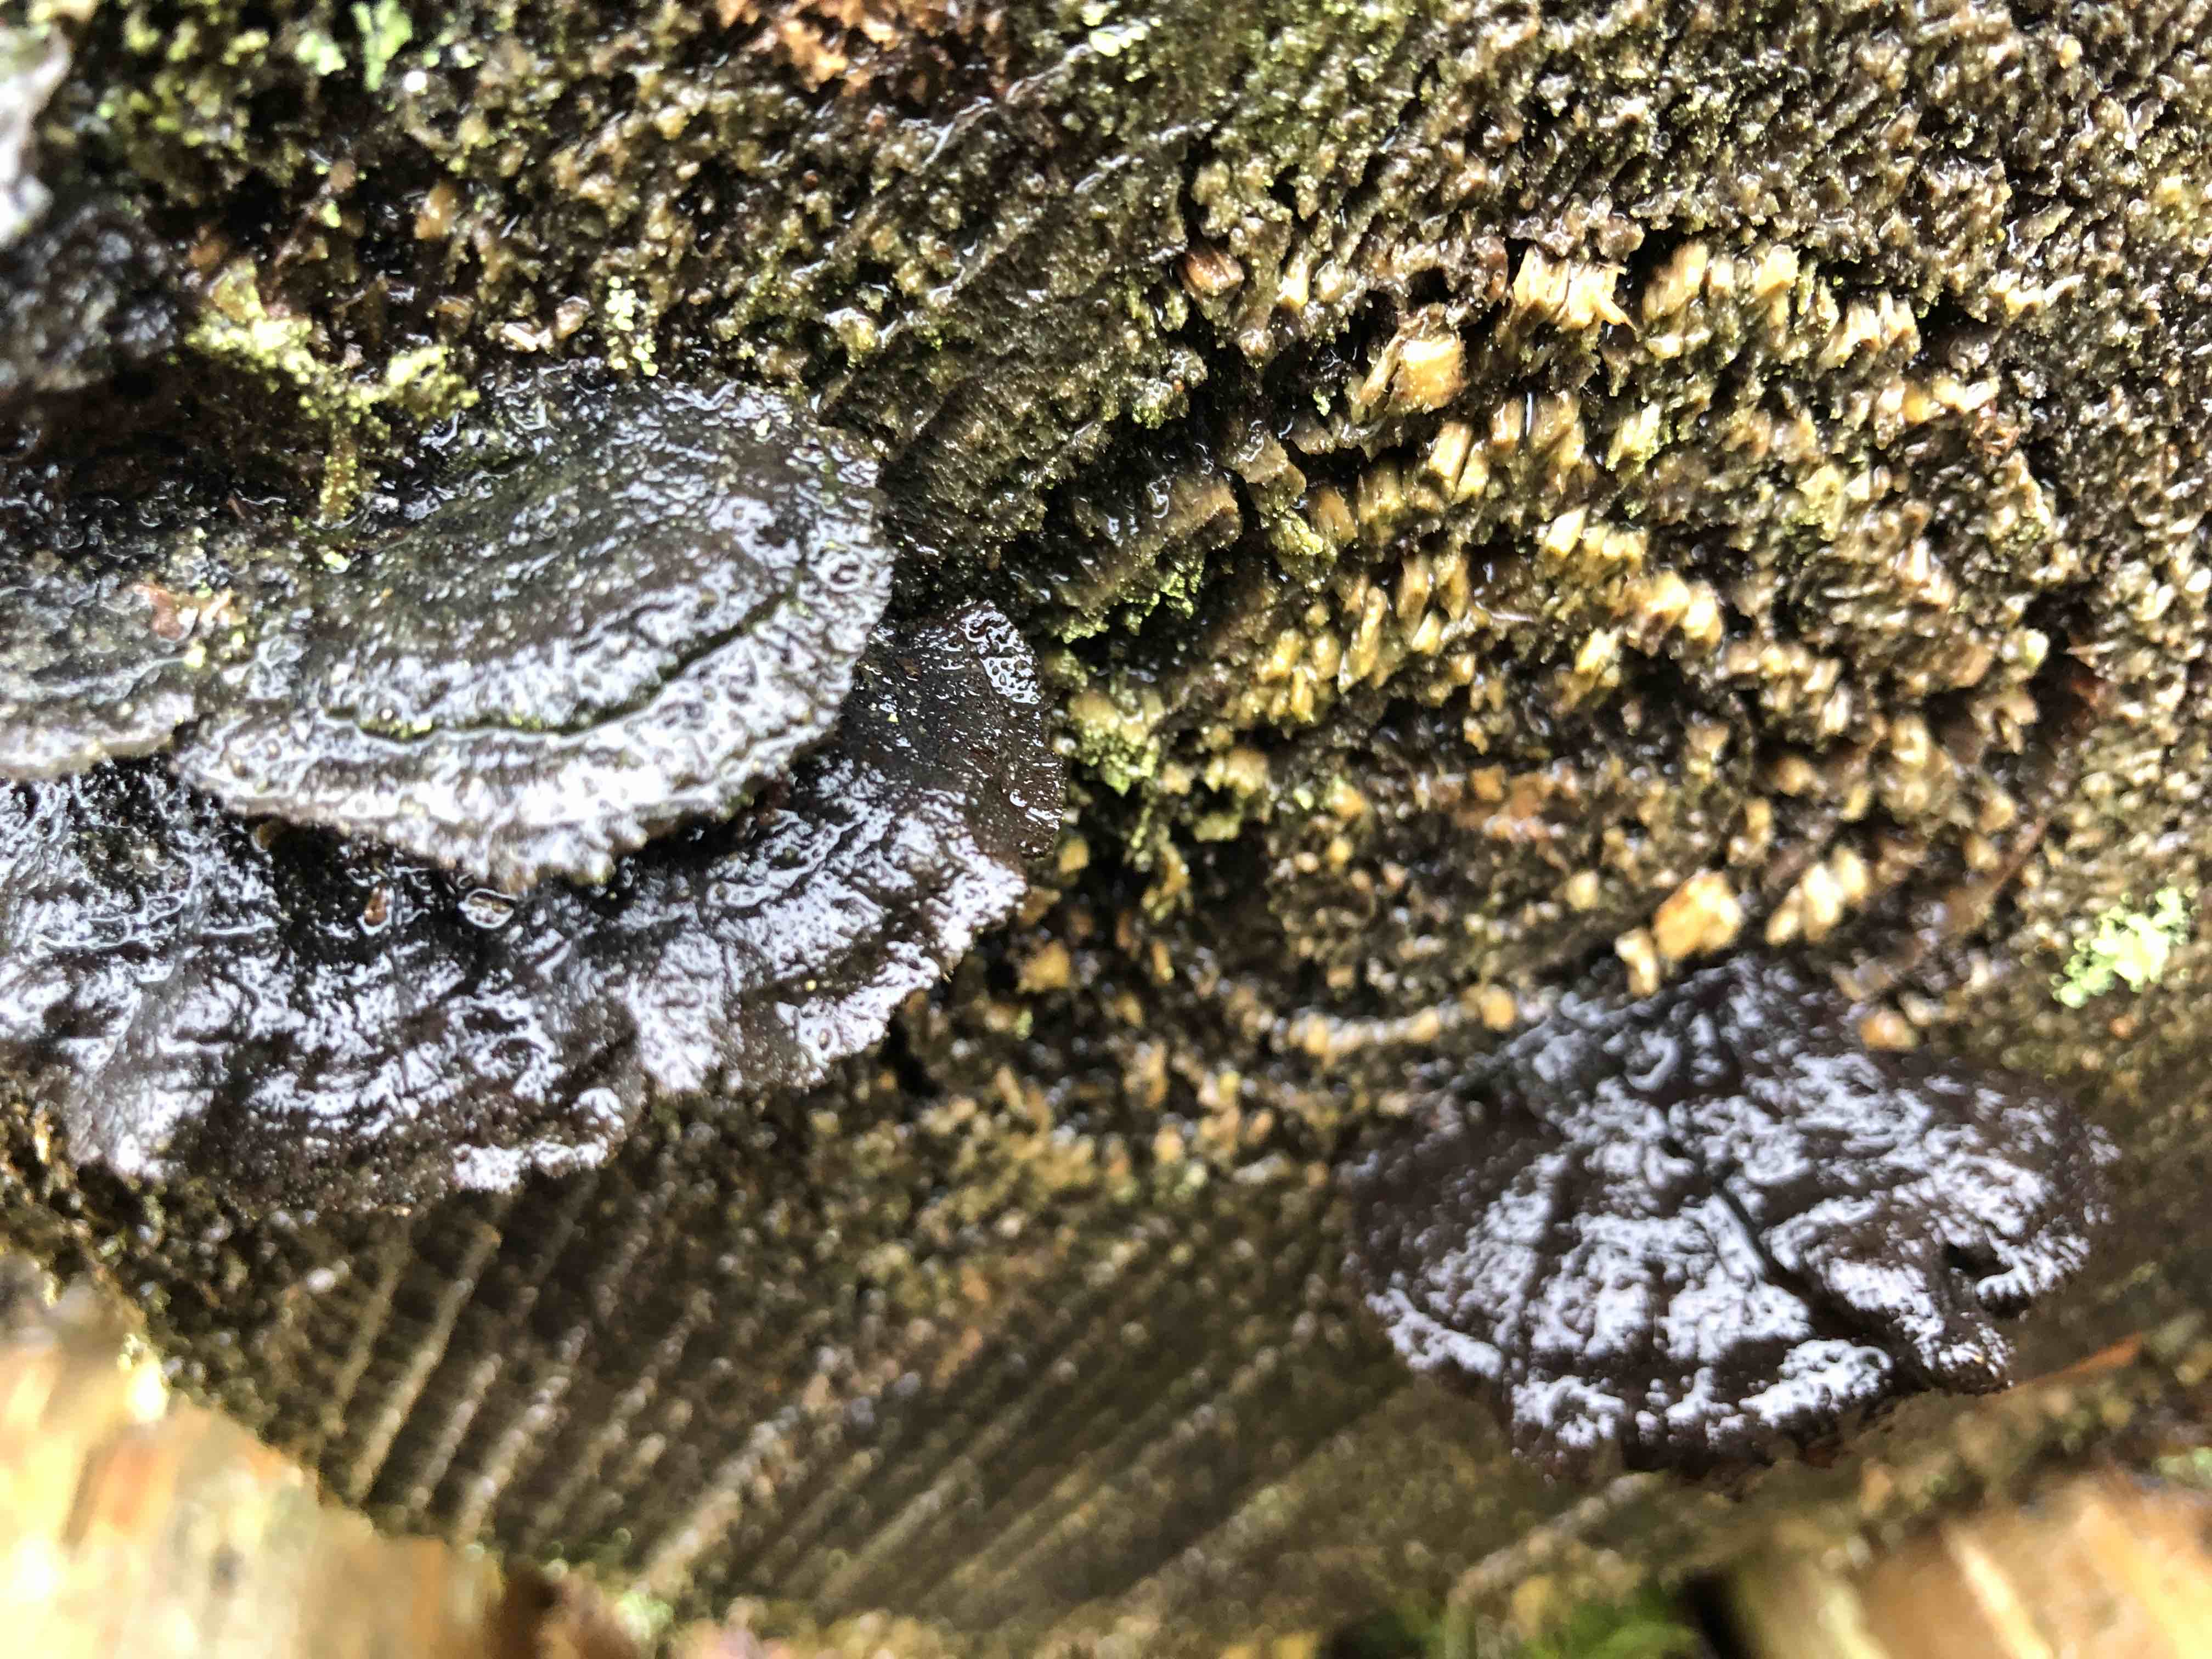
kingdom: Fungi
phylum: Basidiomycota
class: Agaricomycetes
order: Gloeophyllales
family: Gloeophyllaceae
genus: Gloeophyllum
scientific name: Gloeophyllum sepiarium
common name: fyrre-korkhat
